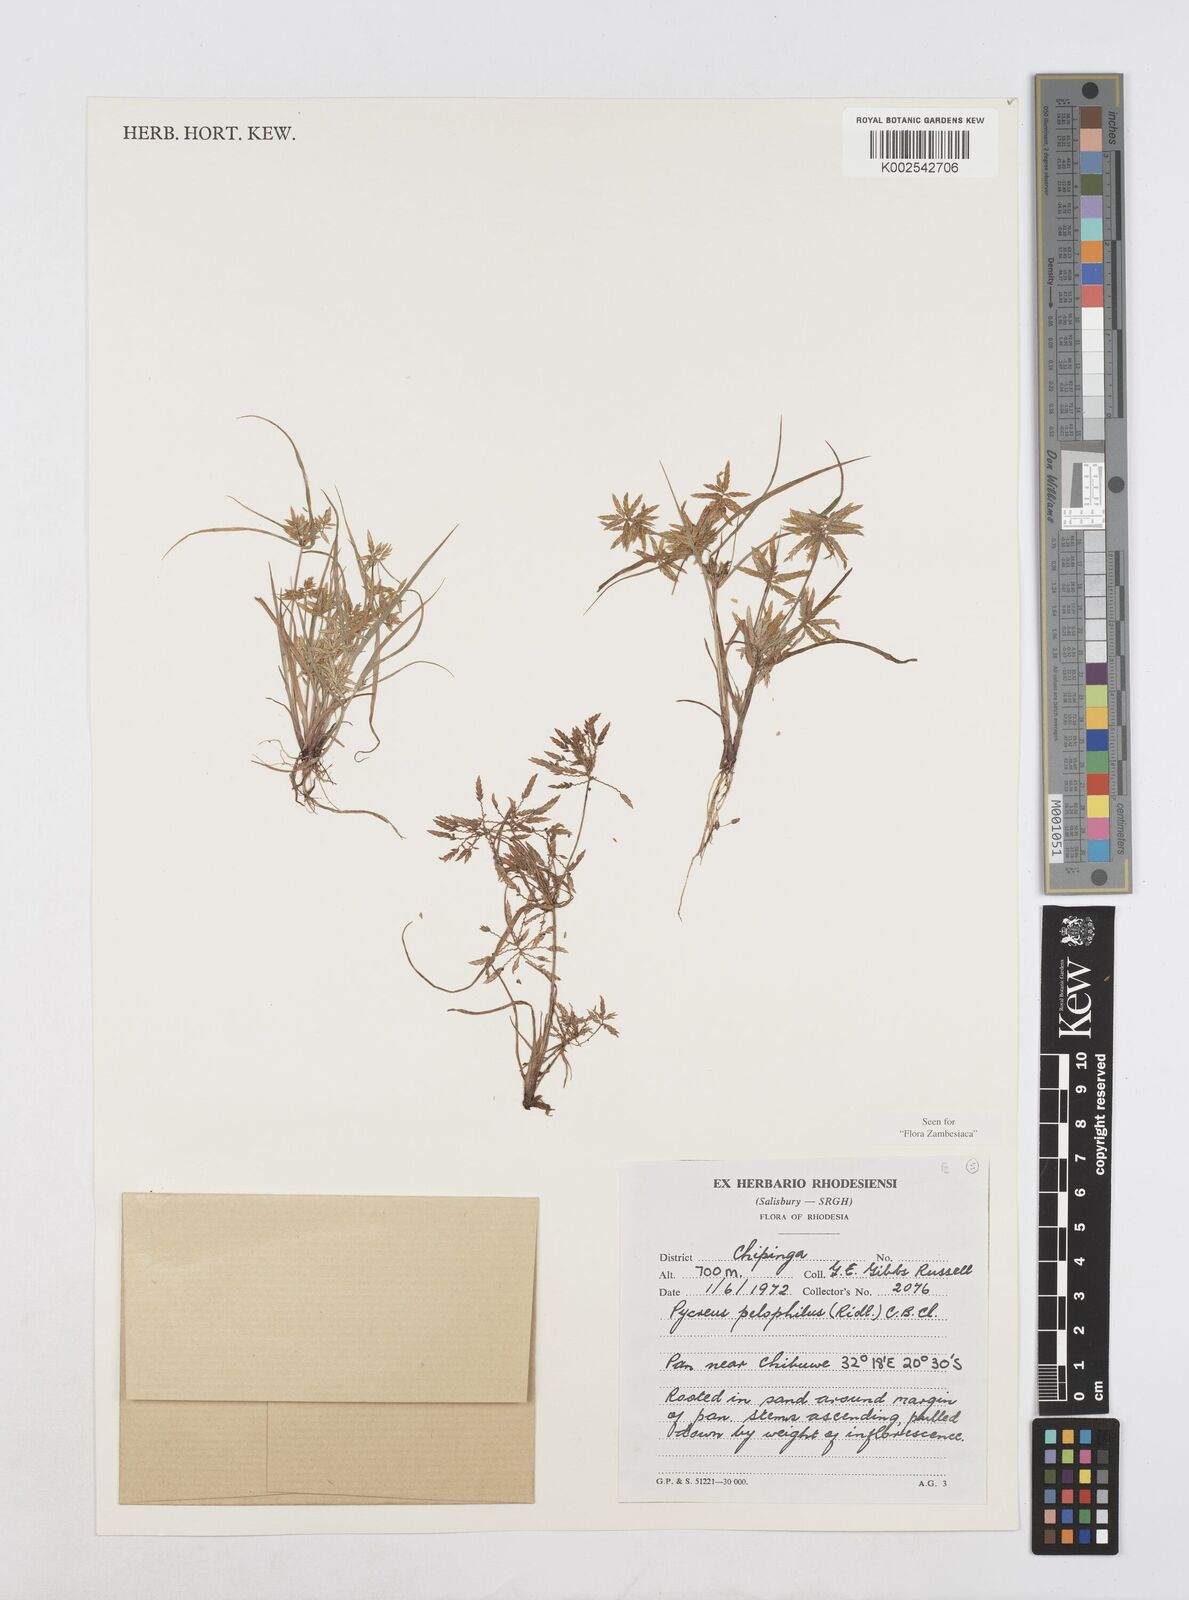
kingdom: Plantae
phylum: Tracheophyta
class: Liliopsida
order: Poales
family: Cyperaceae
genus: Cyperus
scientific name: Cyperus pelophilus
